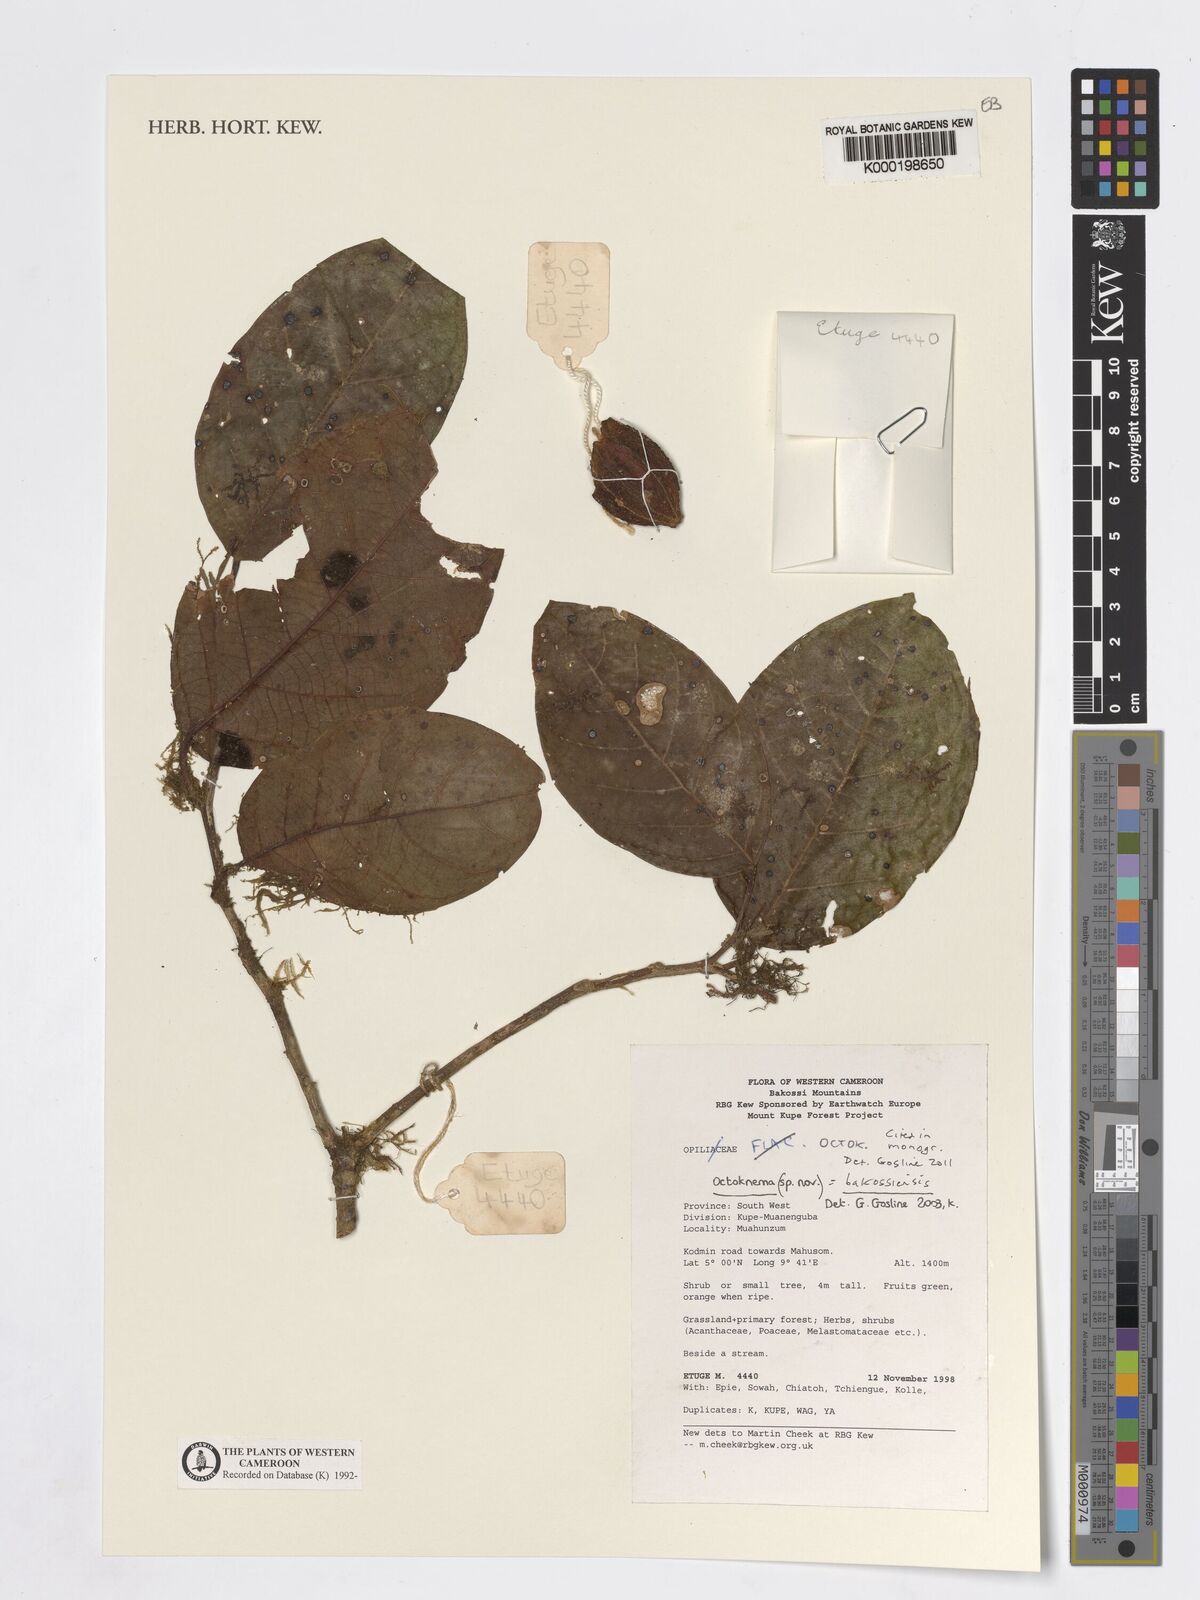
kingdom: Plantae
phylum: Tracheophyta
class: Magnoliopsida
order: Santalales
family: Octoknemaceae
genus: Octoknema
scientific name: Octoknema bakossiensis
